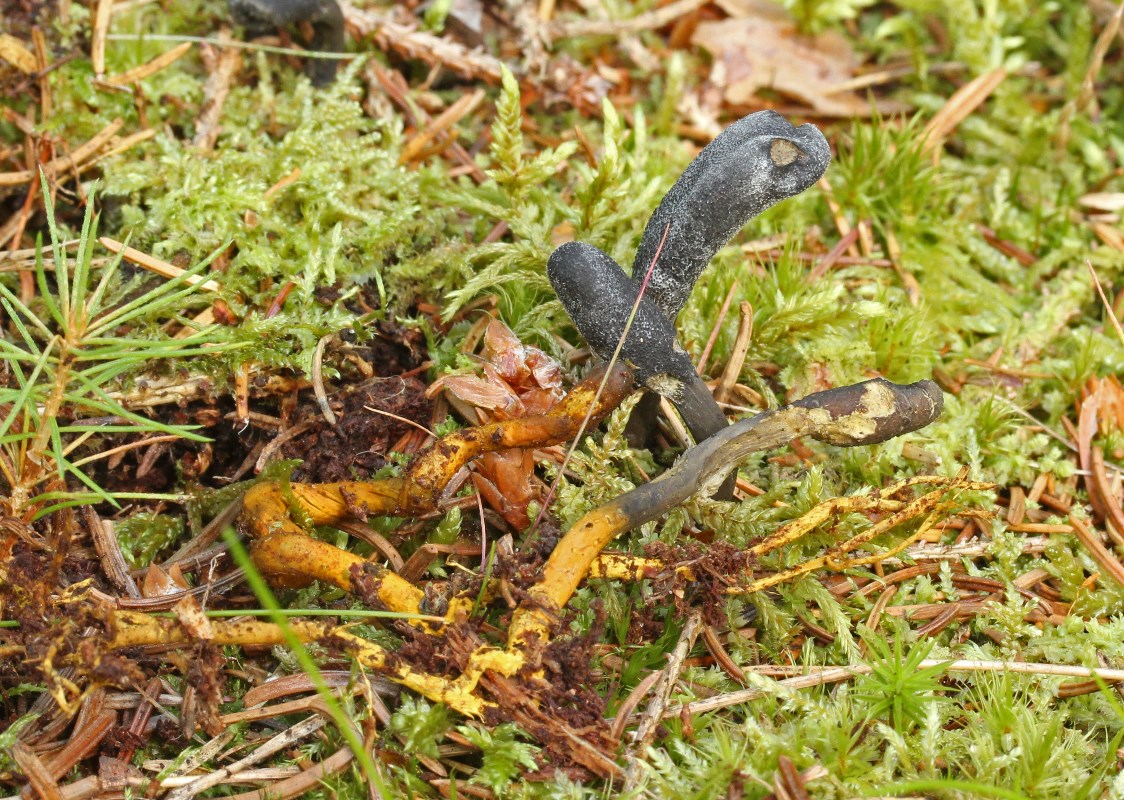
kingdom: Fungi
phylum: Ascomycota
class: Sordariomycetes
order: Hypocreales
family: Ophiocordycipitaceae
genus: Tolypocladium
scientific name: Tolypocladium ophioglossoides
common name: slank snyltekølle
